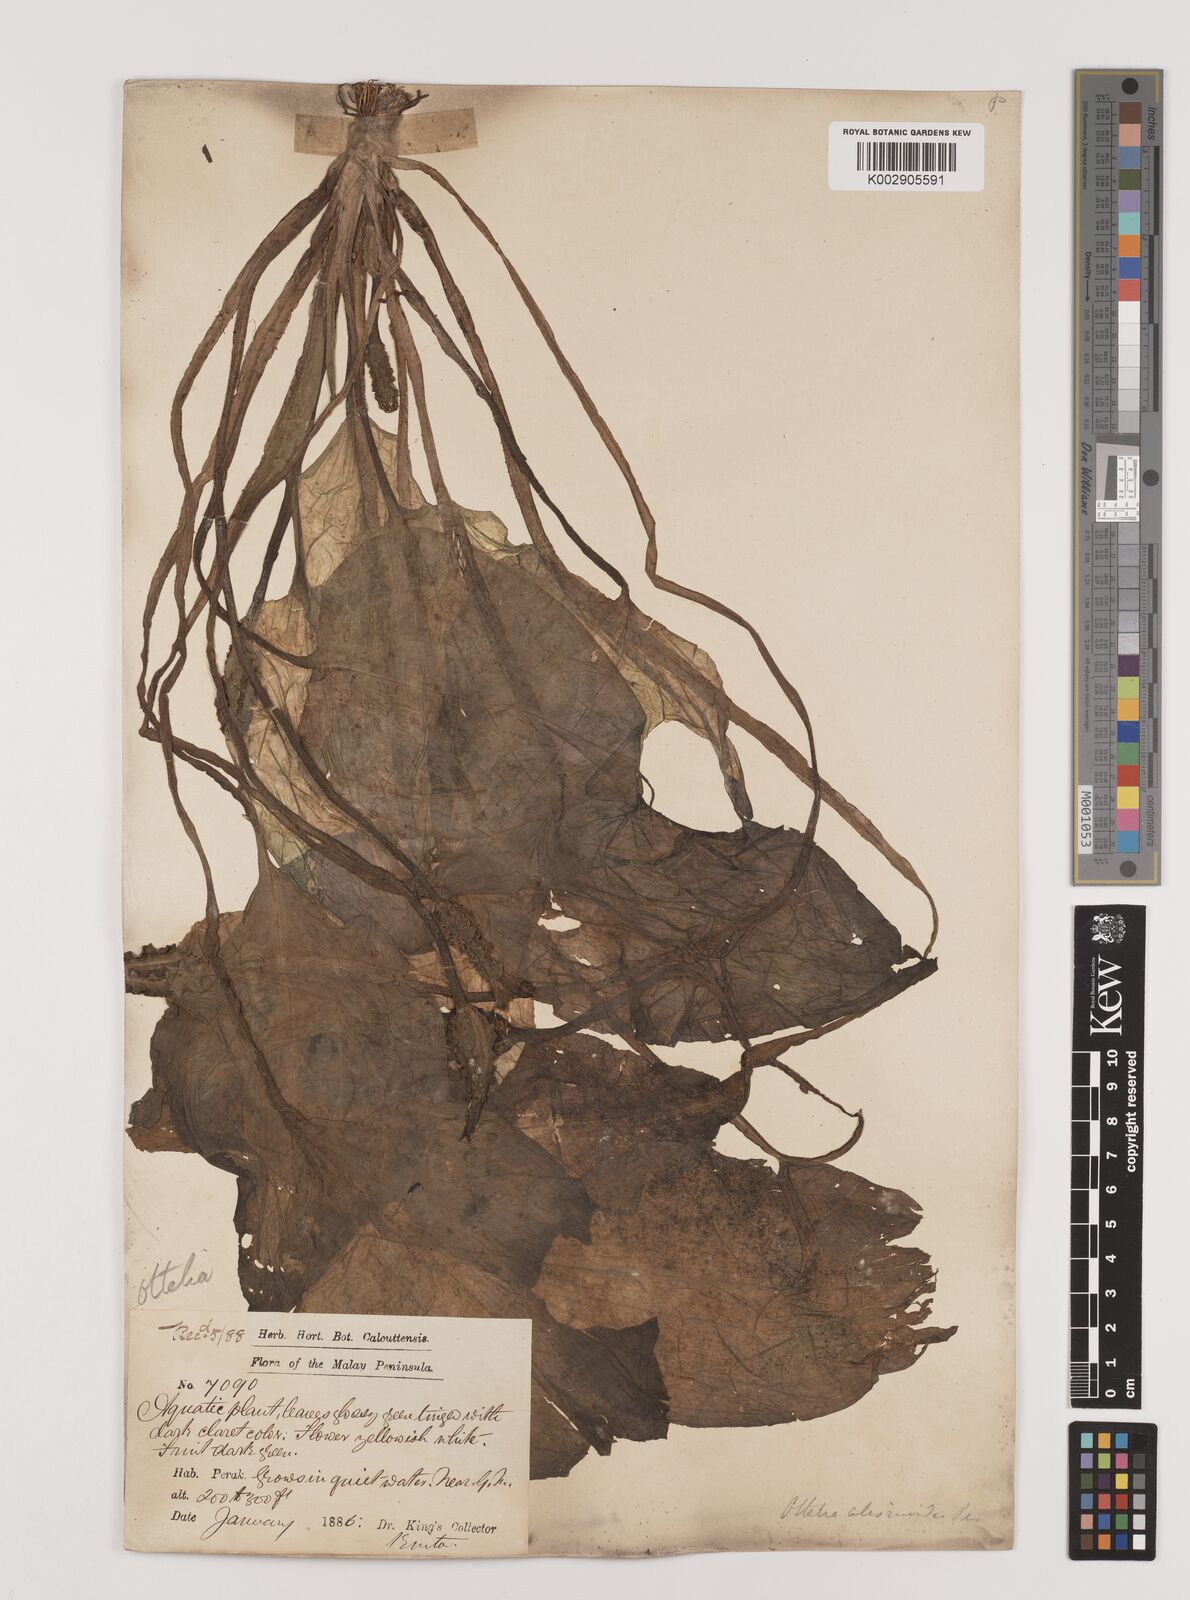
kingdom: Plantae
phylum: Tracheophyta
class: Liliopsida
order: Alismatales
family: Hydrocharitaceae
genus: Ottelia
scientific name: Ottelia alismoides
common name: Duck-lettuce
